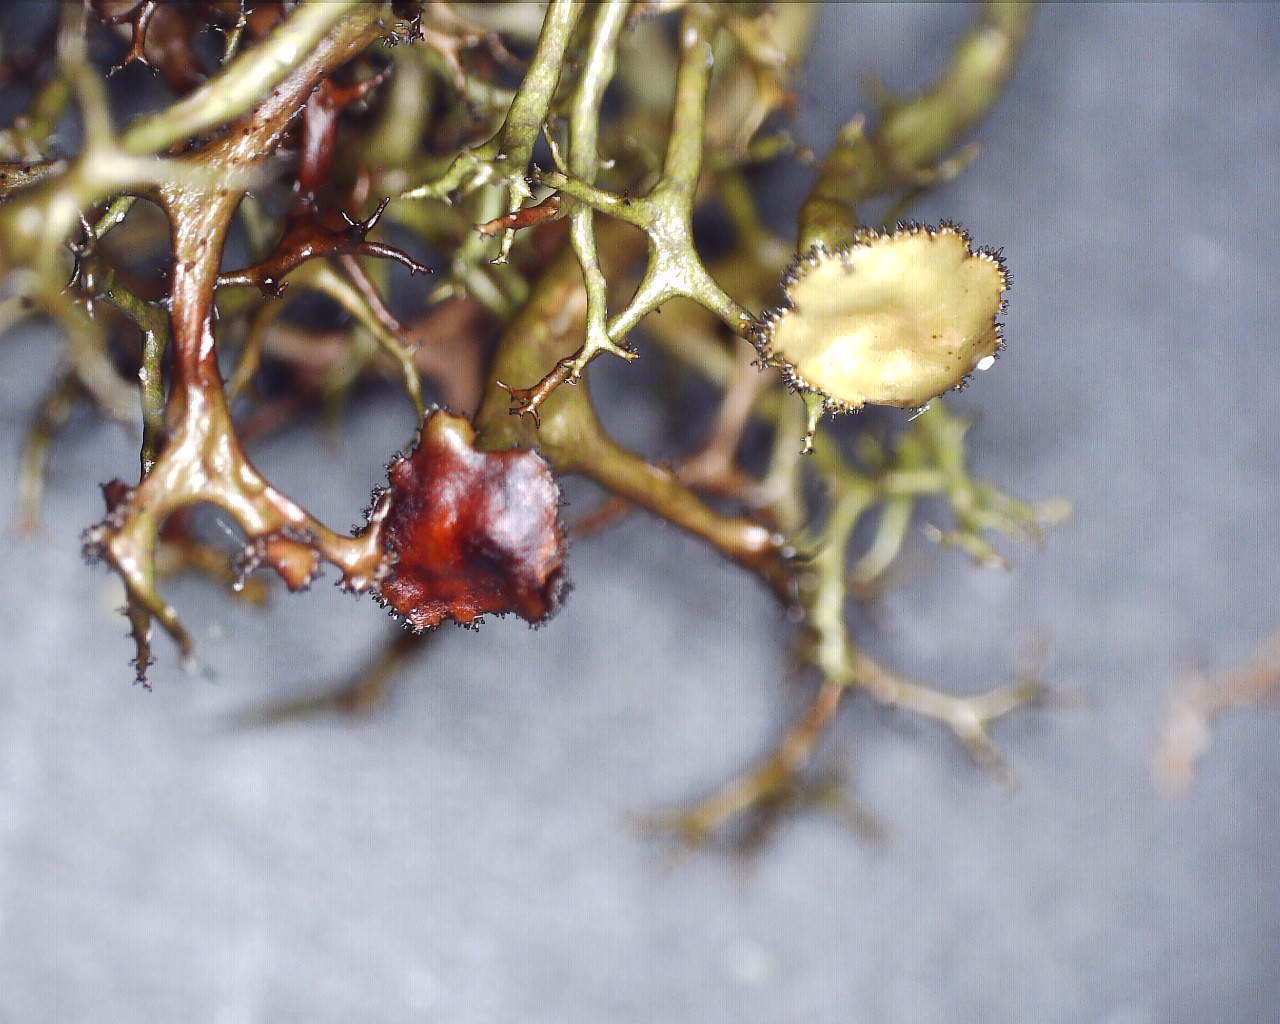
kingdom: Fungi
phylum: Ascomycota
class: Lecanoromycetes
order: Lecanorales
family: Parmeliaceae
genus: Cetraria
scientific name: Cetraria aculeata
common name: grubet tjørnelav
